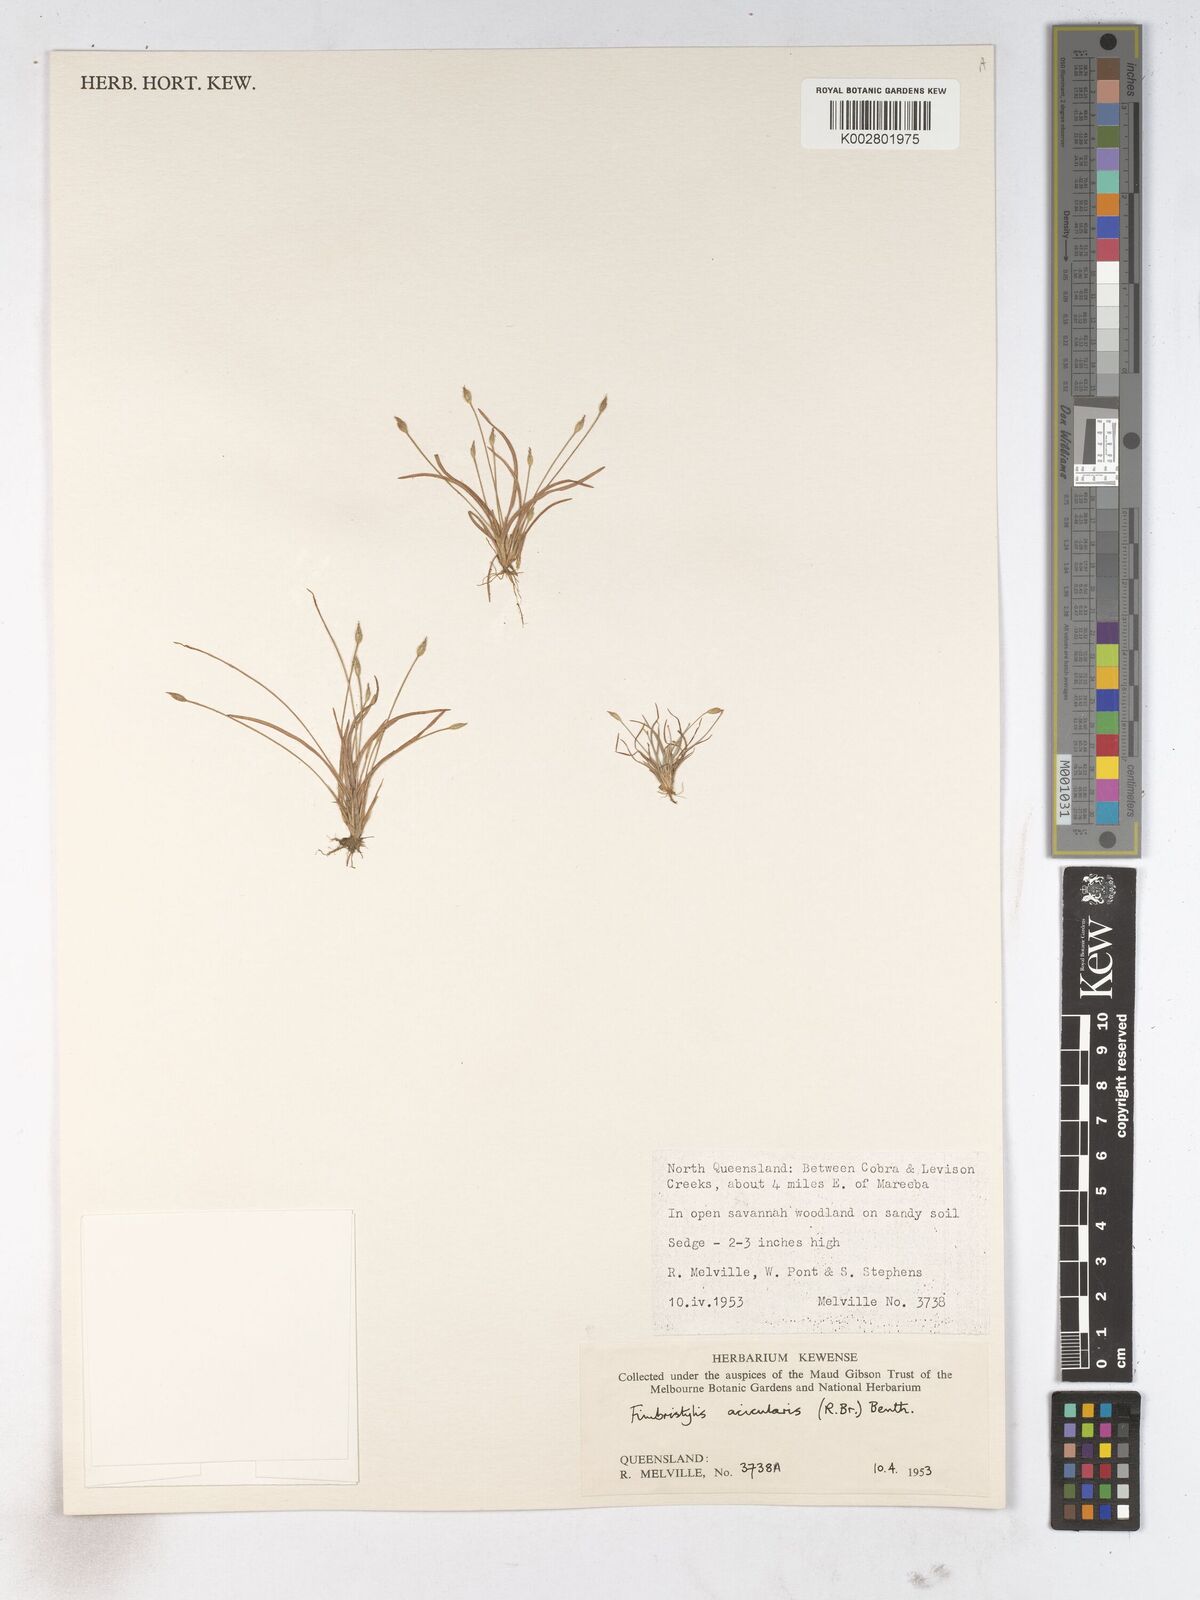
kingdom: Plantae
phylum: Tracheophyta
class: Liliopsida
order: Poales
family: Cyperaceae
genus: Fimbristylis
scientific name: Fimbristylis acicularis
